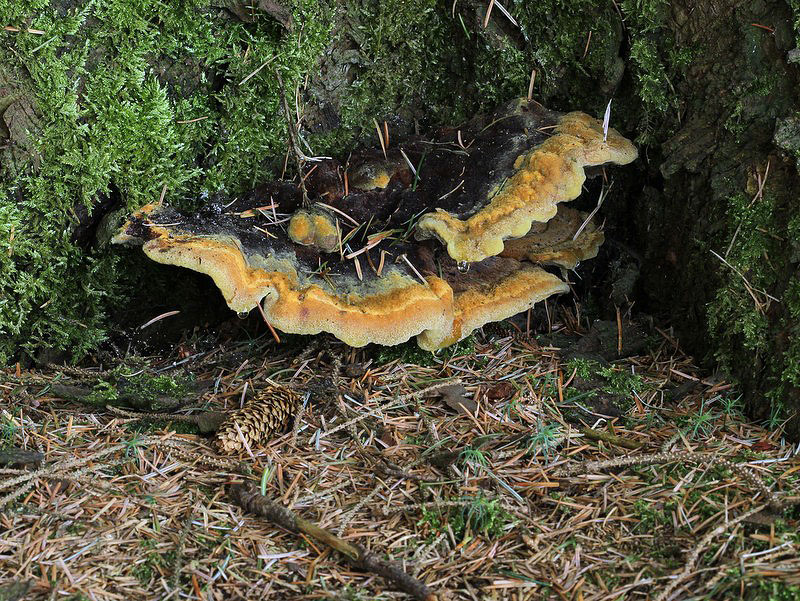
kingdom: Fungi
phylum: Basidiomycota
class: Agaricomycetes
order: Polyporales
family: Laetiporaceae
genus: Phaeolus
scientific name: Phaeolus schweinitzii
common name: brunporesvamp
